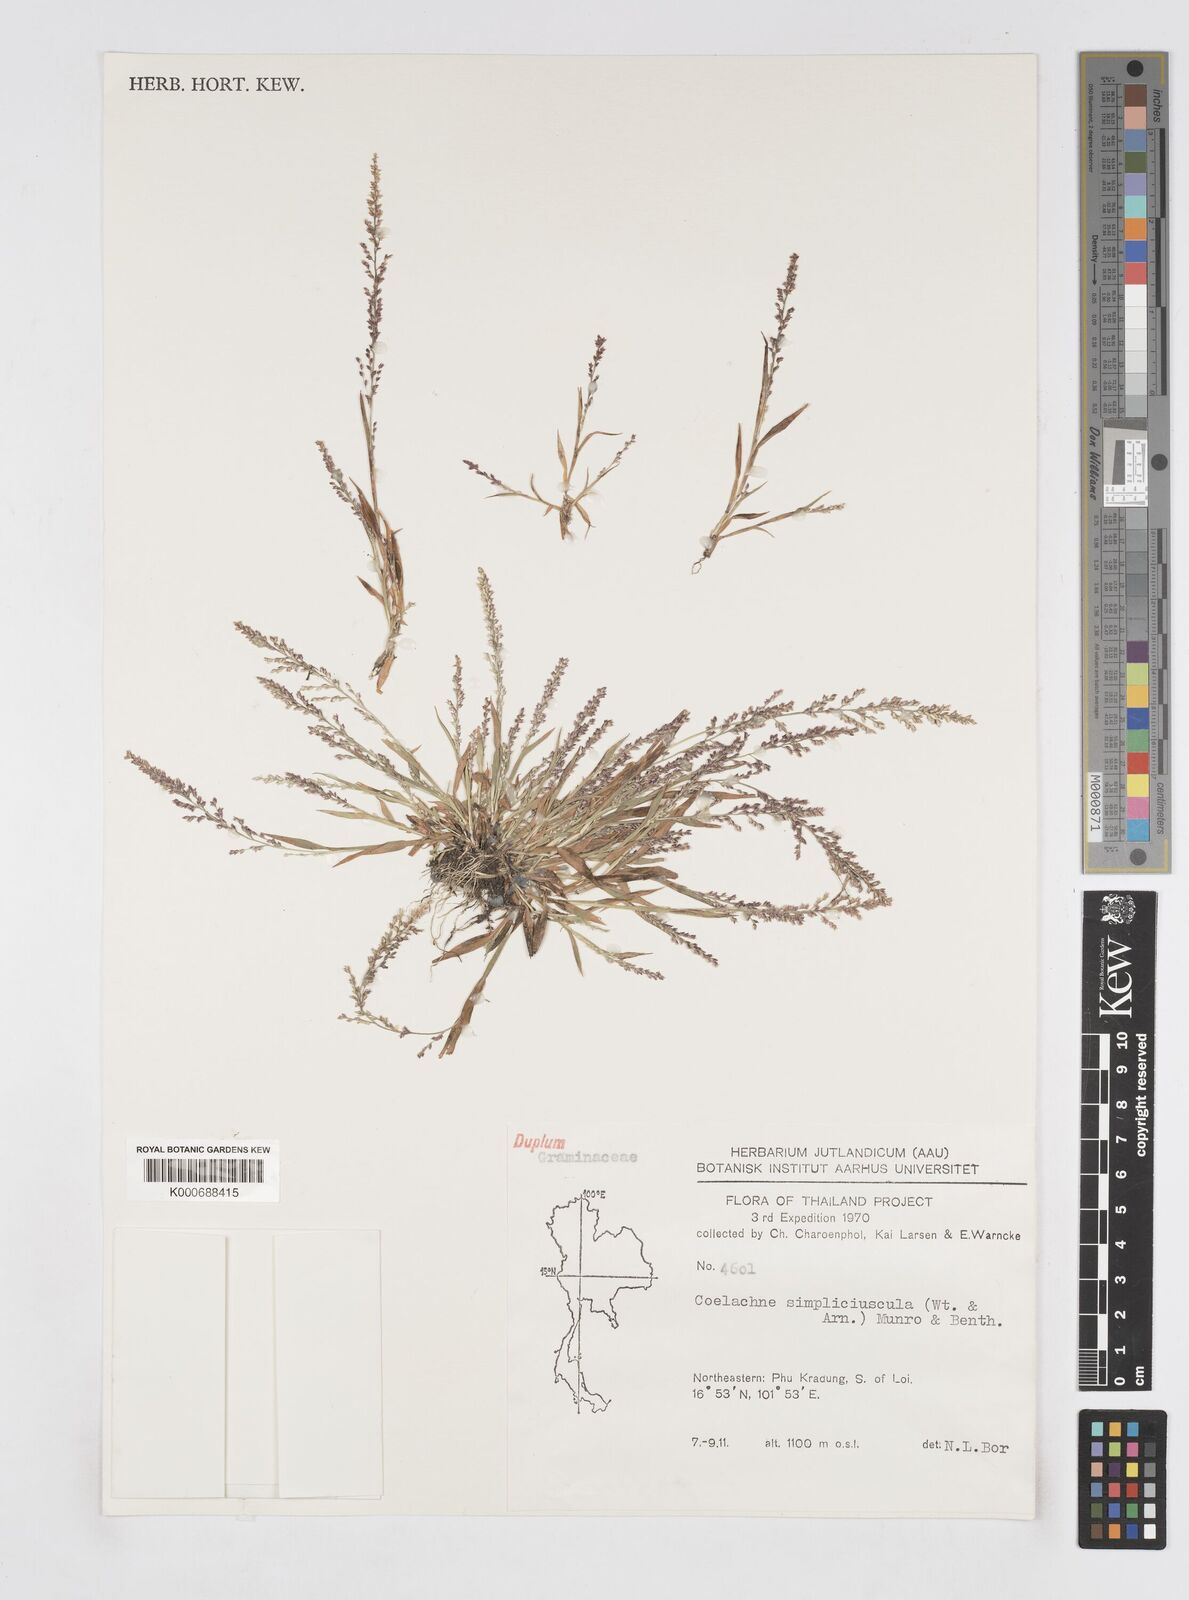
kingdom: Plantae
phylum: Tracheophyta
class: Liliopsida
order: Poales
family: Poaceae
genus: Coelachne
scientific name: Coelachne simpliciuscula
